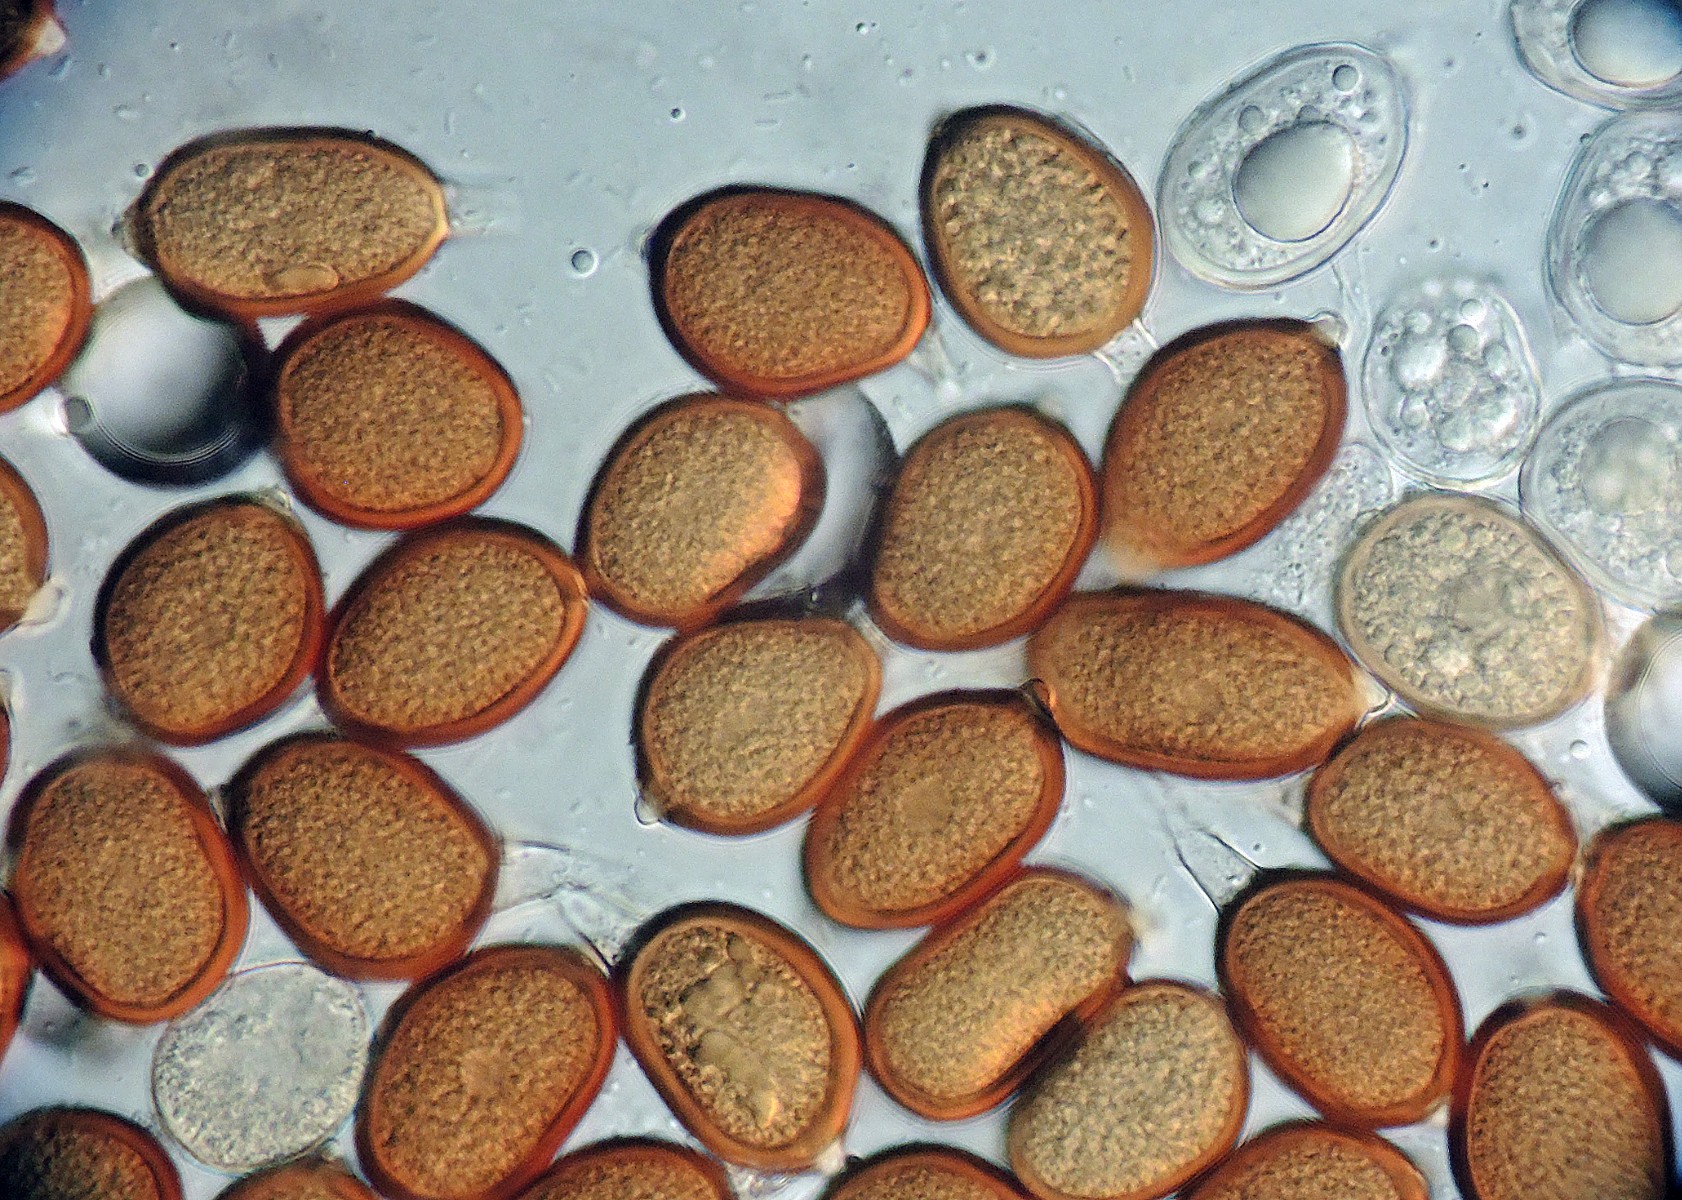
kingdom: Fungi
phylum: Basidiomycota
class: Pucciniomycetes
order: Pucciniales
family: Pucciniaceae
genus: Uromyces
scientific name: Uromyces gageae
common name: Yellow star-of-bethlehem rust
